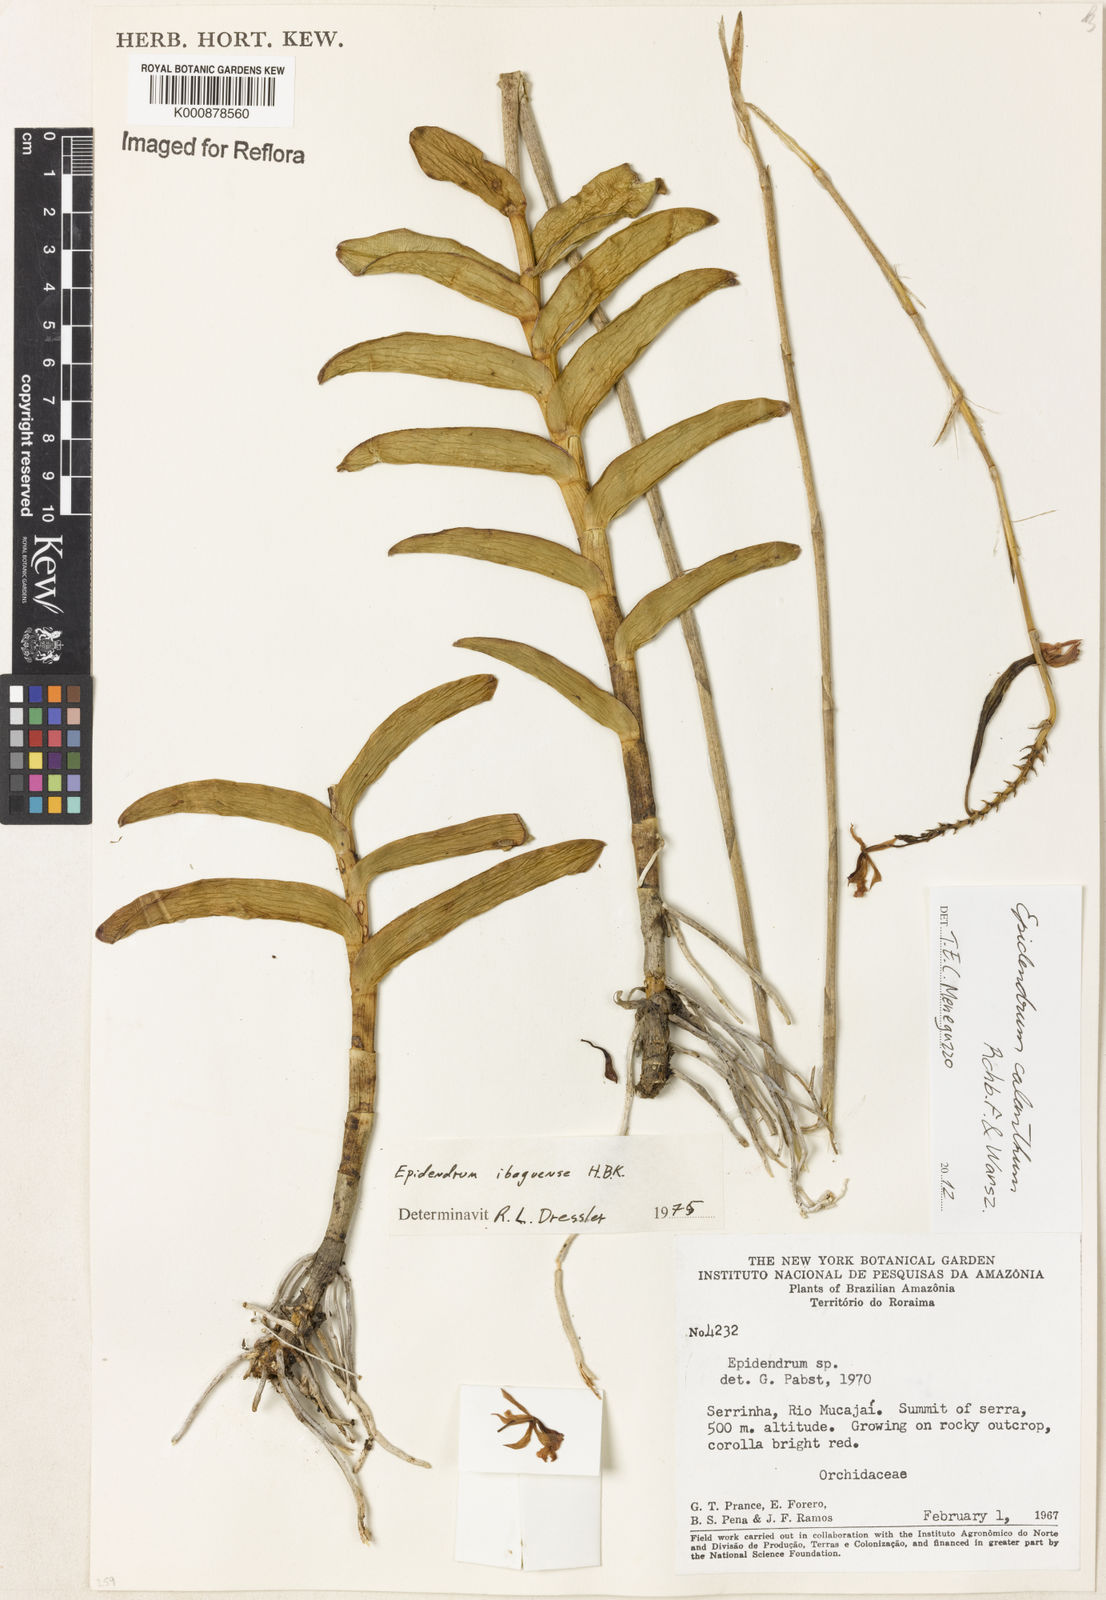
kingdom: Plantae
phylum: Tracheophyta
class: Liliopsida
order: Asparagales
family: Orchidaceae
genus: Epidendrum
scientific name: Epidendrum calanthum
